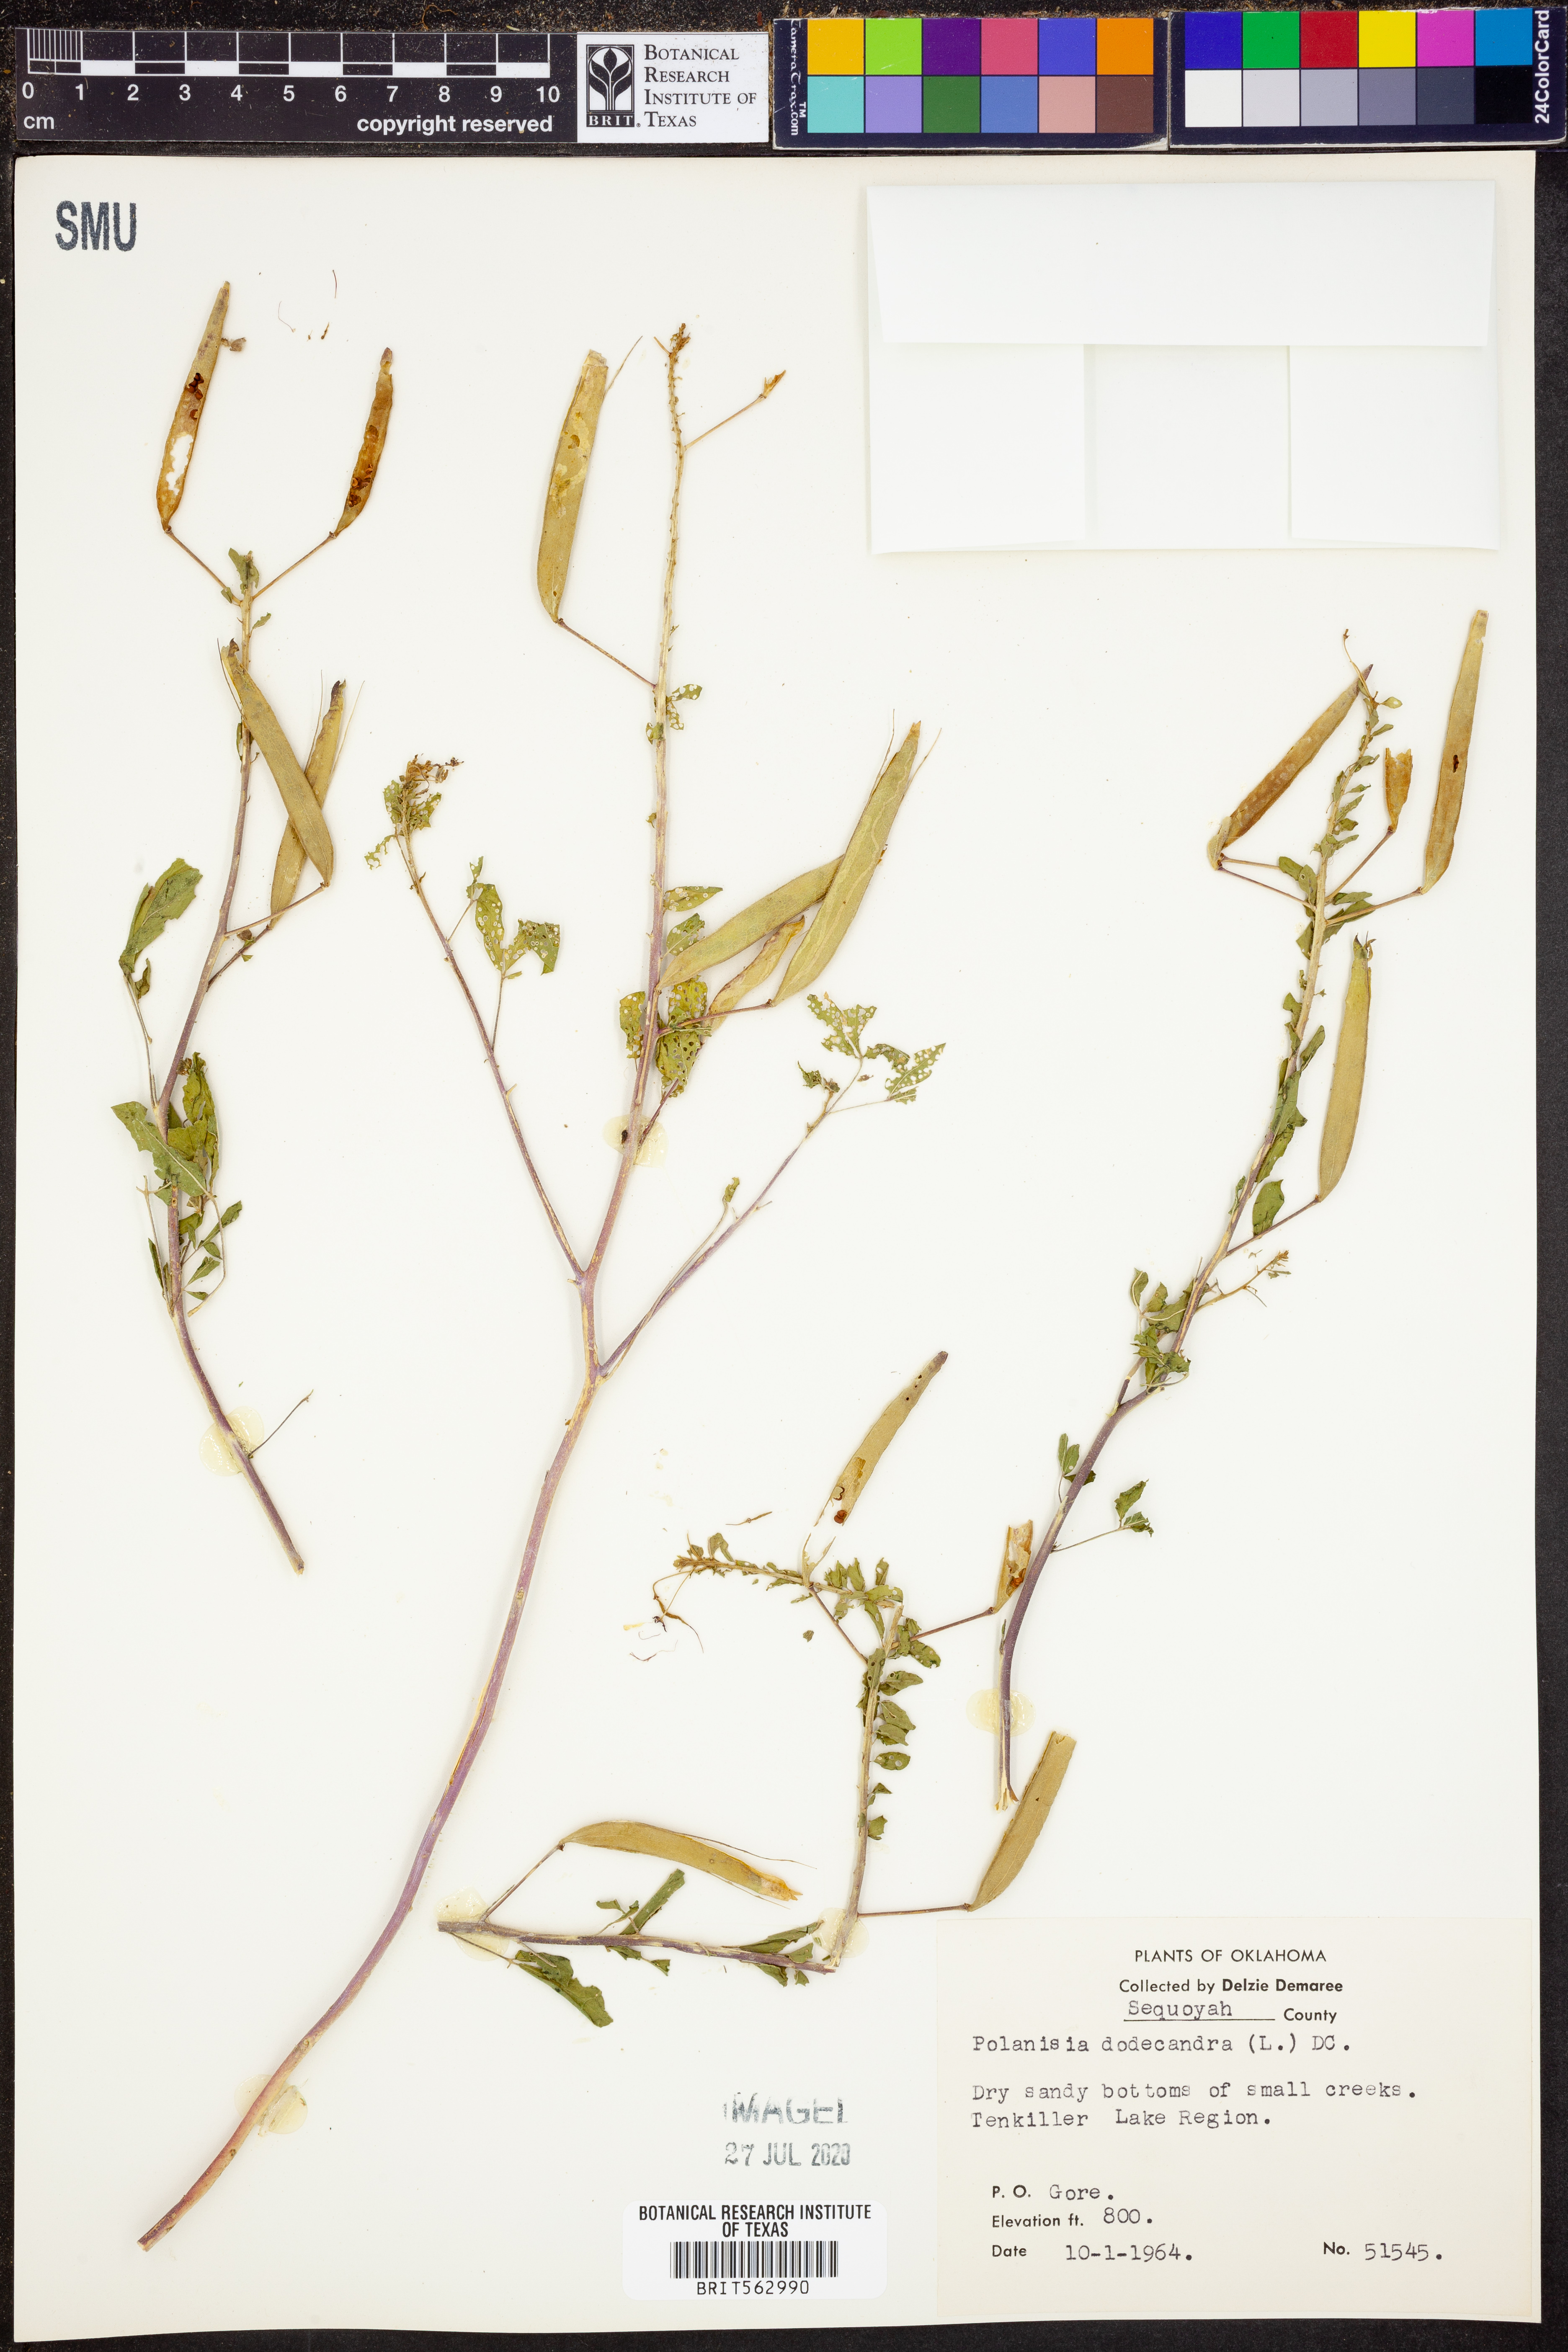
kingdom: Plantae
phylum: Tracheophyta
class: Magnoliopsida
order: Brassicales
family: Cleomaceae
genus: Polanisia
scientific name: Polanisia dodecandra
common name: Clammyweed
